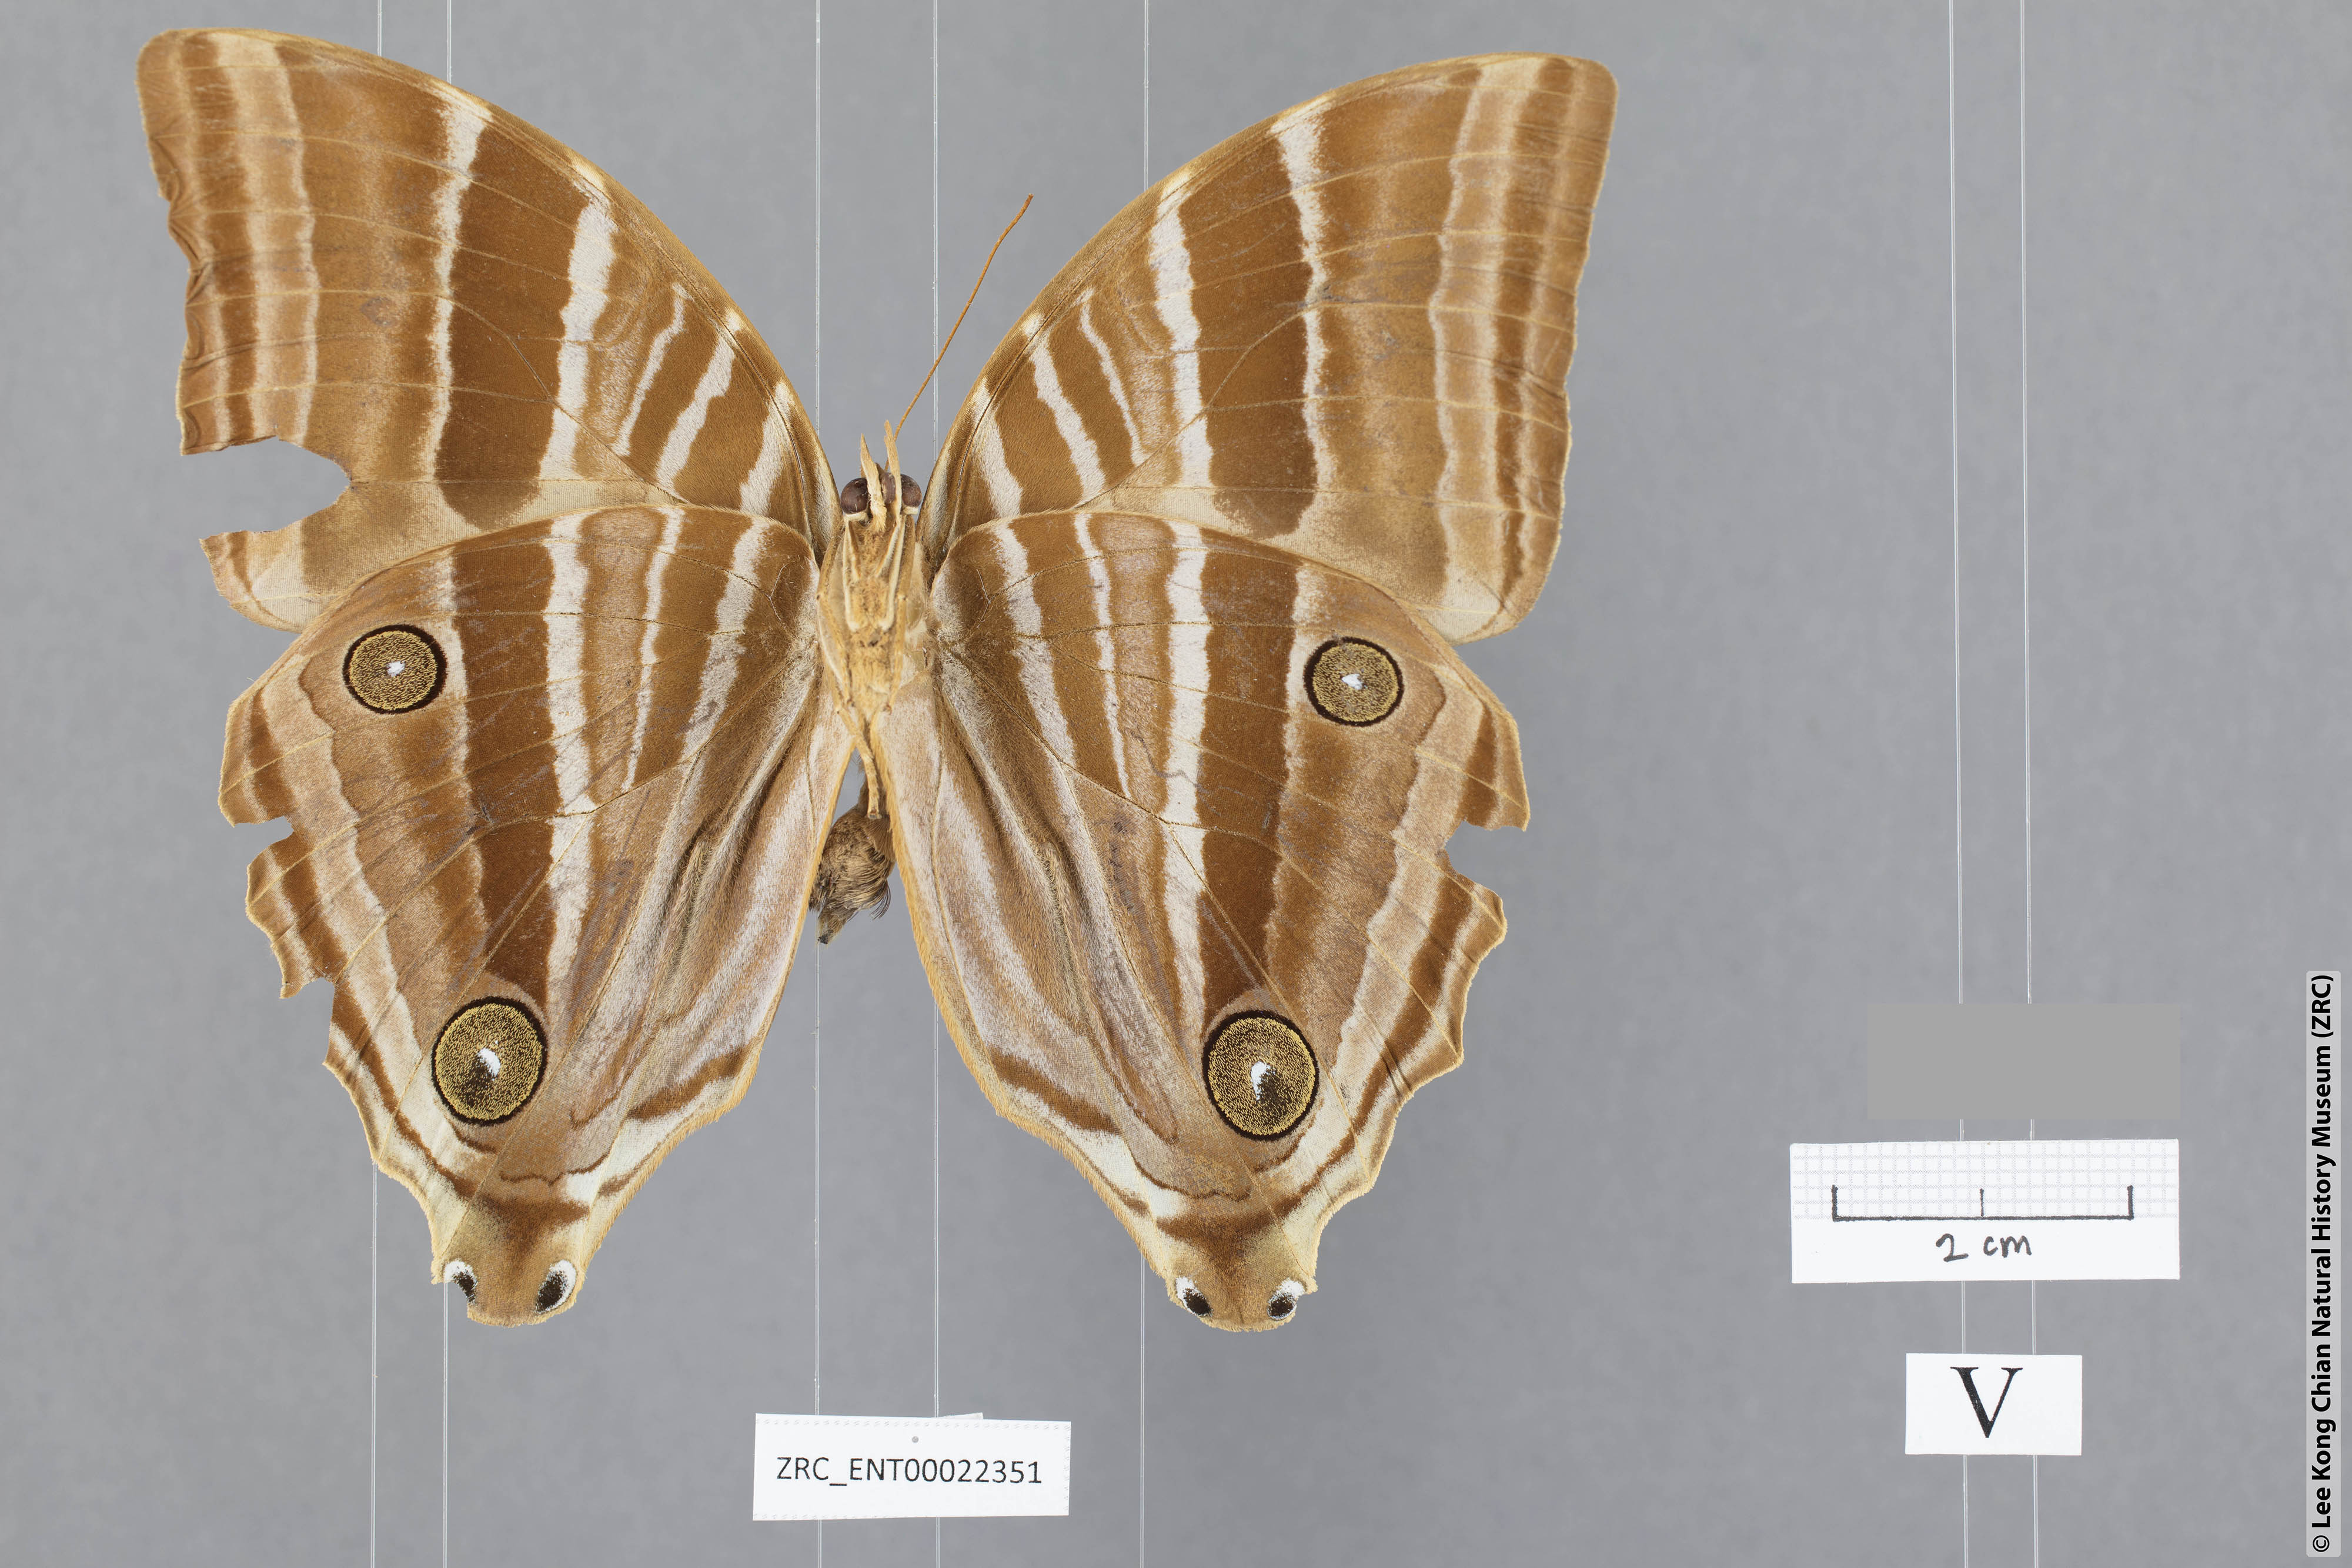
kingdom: Animalia
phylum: Arthropoda
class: Insecta
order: Lepidoptera
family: Nymphalidae
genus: Amathusia
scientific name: Amathusia friderici
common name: Bicolor-haired palm king
